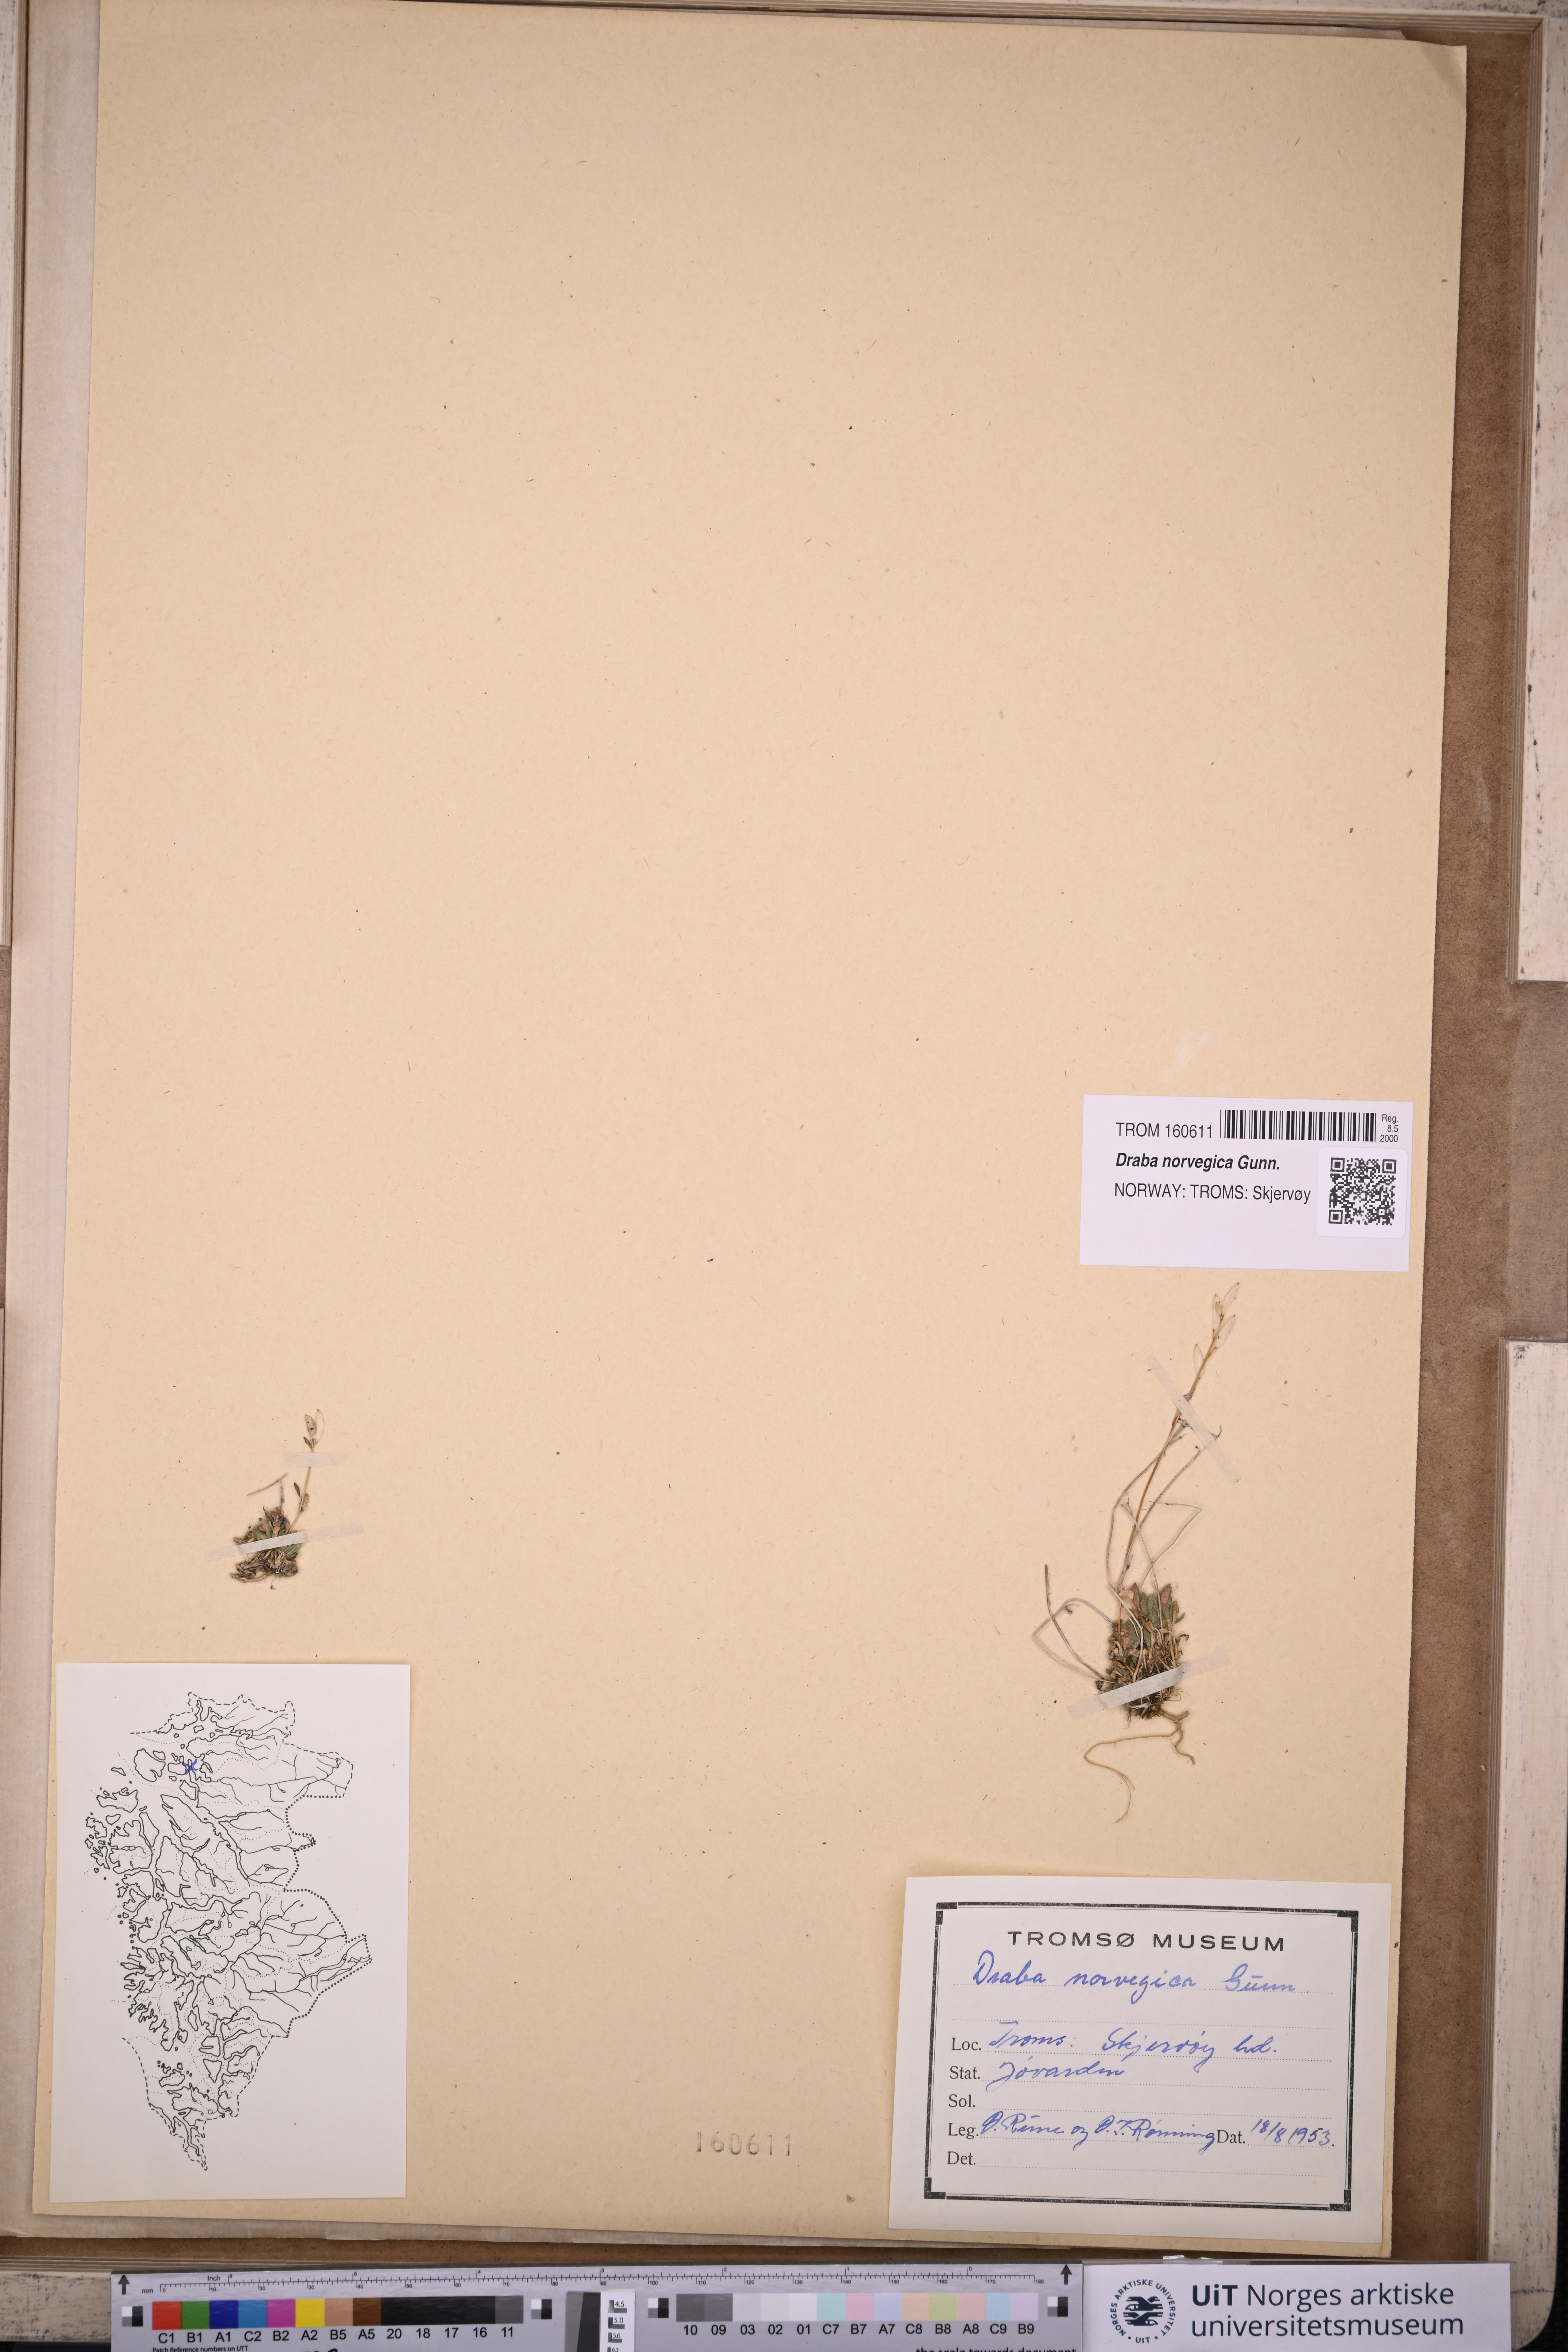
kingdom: Plantae
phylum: Tracheophyta
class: Magnoliopsida
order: Brassicales
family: Brassicaceae
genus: Draba
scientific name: Draba norvegica
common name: Rock whitlowgrass
